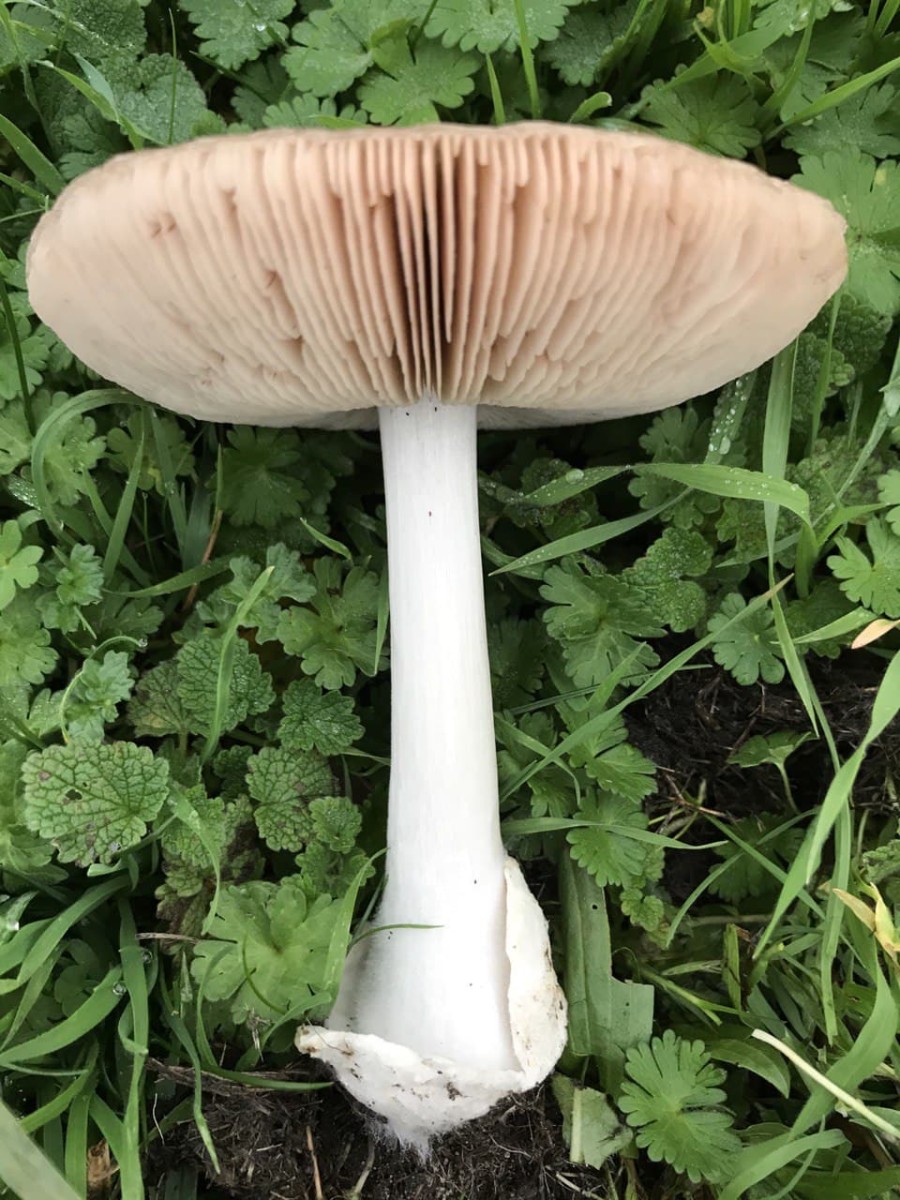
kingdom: Fungi
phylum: Basidiomycota
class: Agaricomycetes
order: Agaricales
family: Pluteaceae
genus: Volvopluteus
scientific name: Volvopluteus gloiocephalus
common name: høj posesvamp
